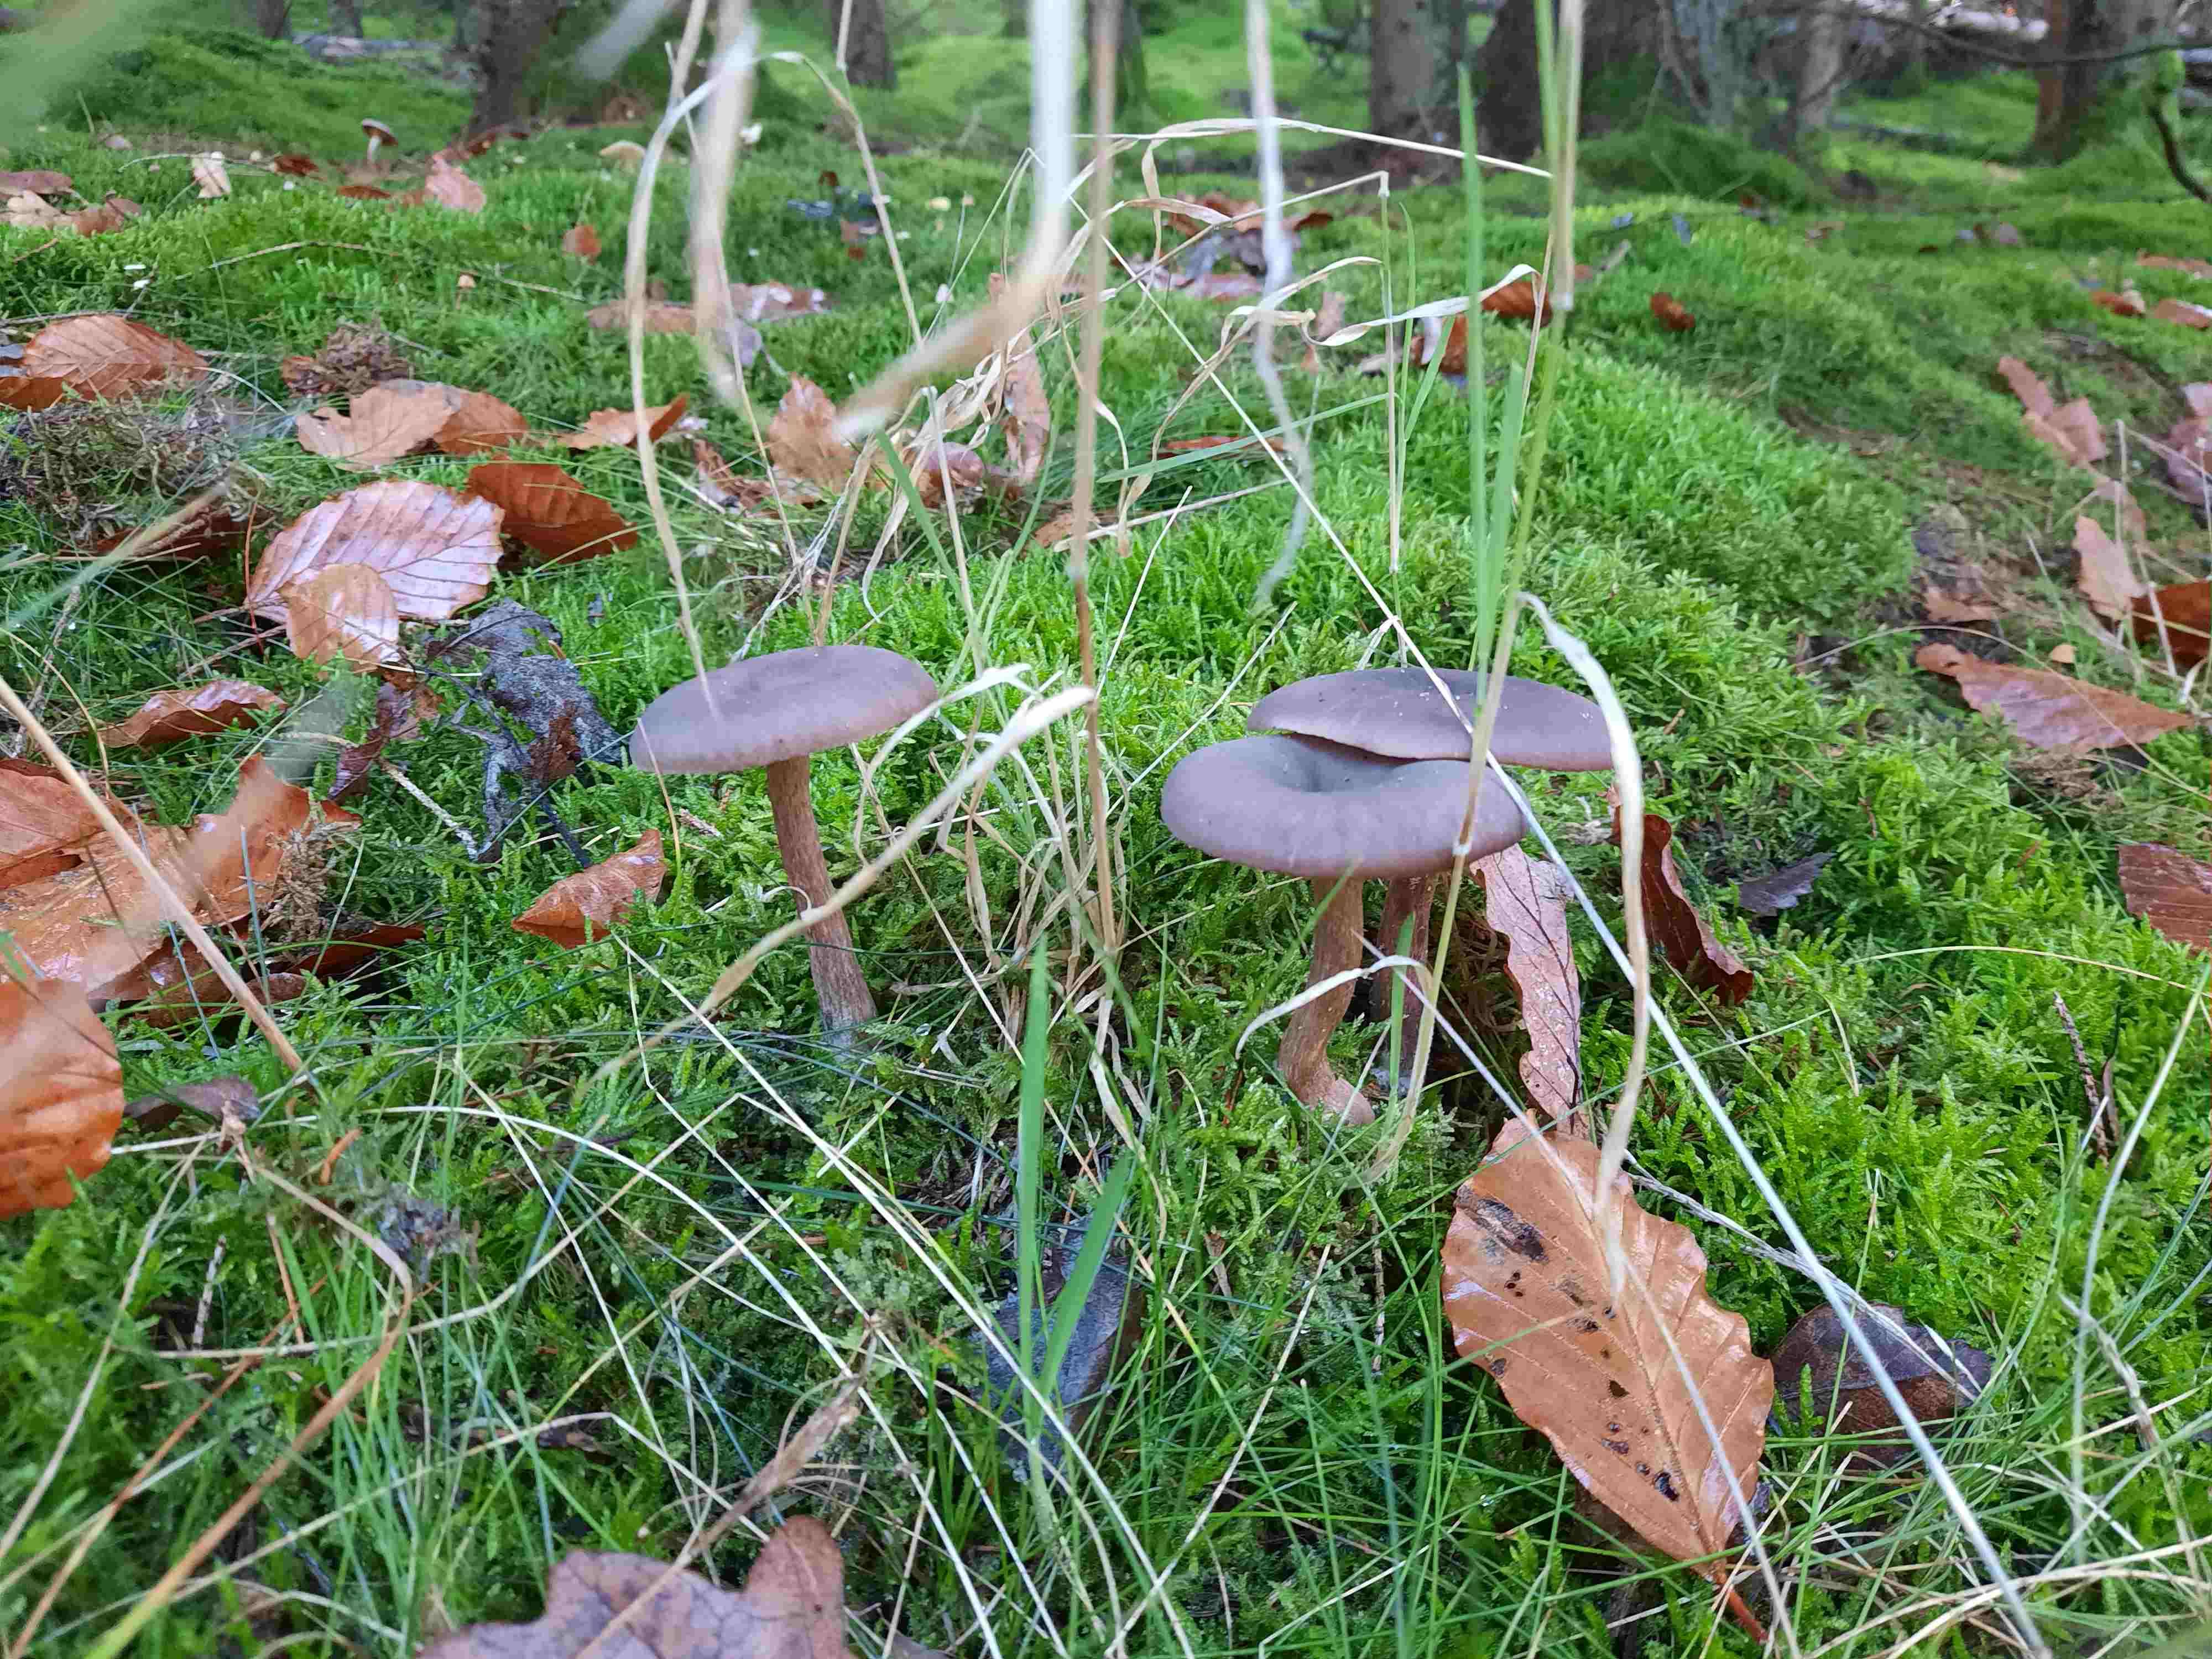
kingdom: Fungi
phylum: Basidiomycota
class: Agaricomycetes
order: Agaricales
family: Pseudoclitocybaceae
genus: Pseudoclitocybe
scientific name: Pseudoclitocybe cyathiformis
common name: almindelig bægertragthat
